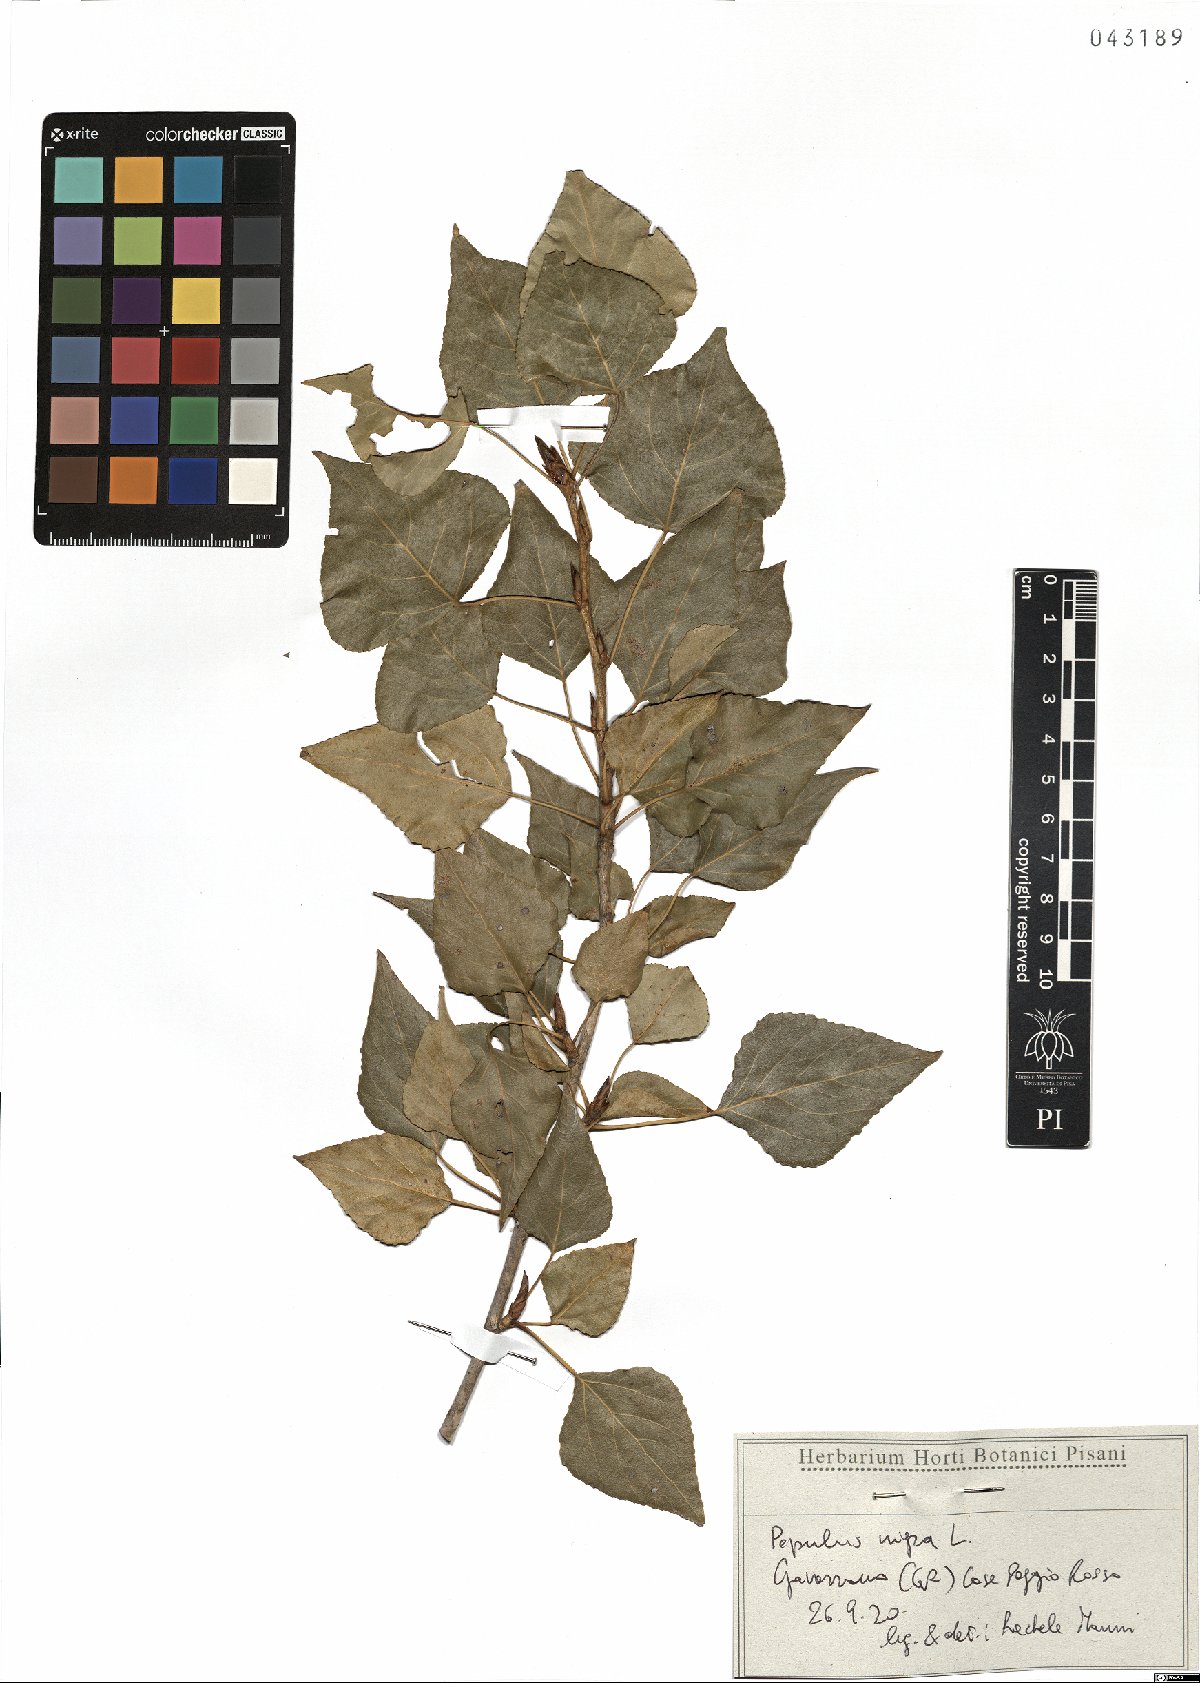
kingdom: Plantae
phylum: Tracheophyta
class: Magnoliopsida
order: Malpighiales
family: Salicaceae
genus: Populus
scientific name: Populus nigra
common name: Black poplar
